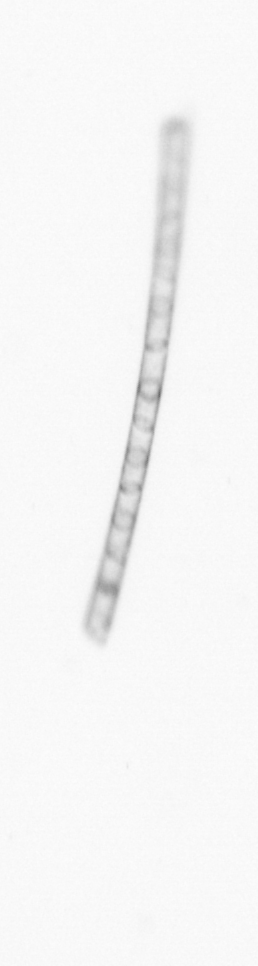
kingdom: Chromista
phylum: Ochrophyta
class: Bacillariophyceae
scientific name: Bacillariophyceae
